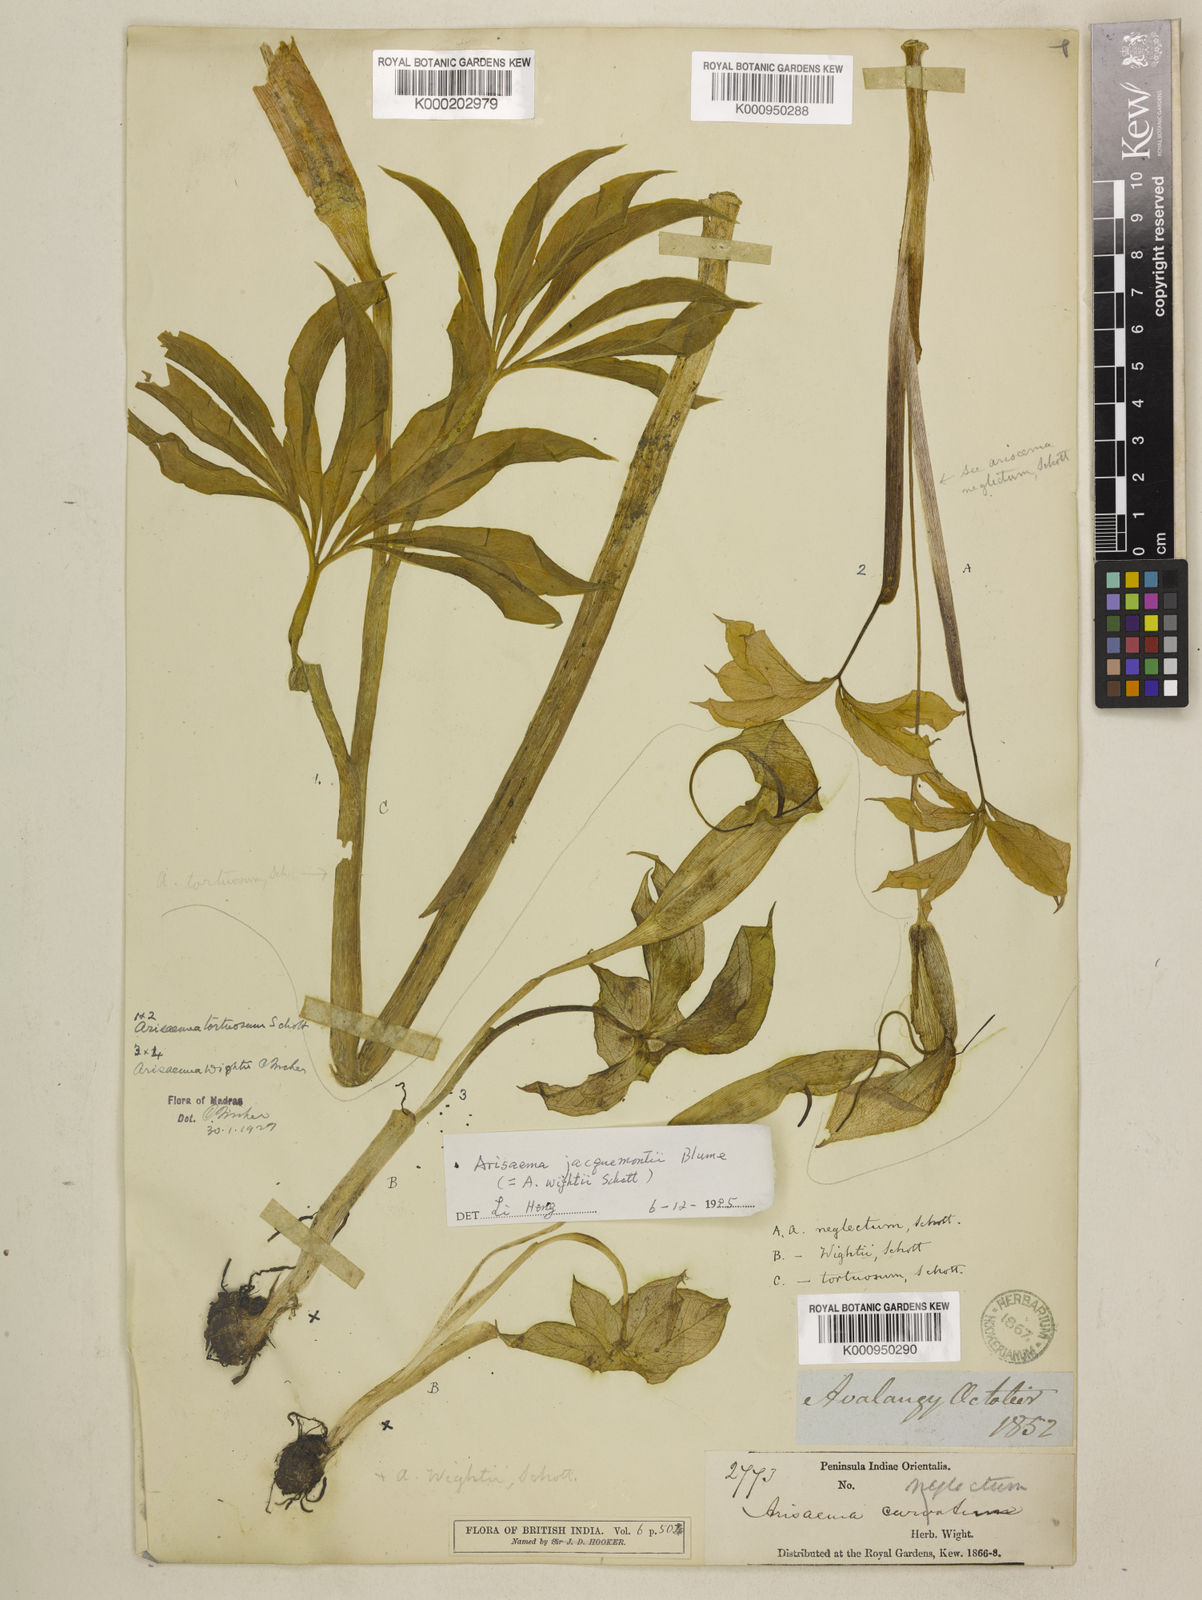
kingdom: Plantae
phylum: Tracheophyta
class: Liliopsida
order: Alismatales
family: Araceae
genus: Arisaema
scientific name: Arisaema jacquemontii
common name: Jacquemont's cobra-lily
